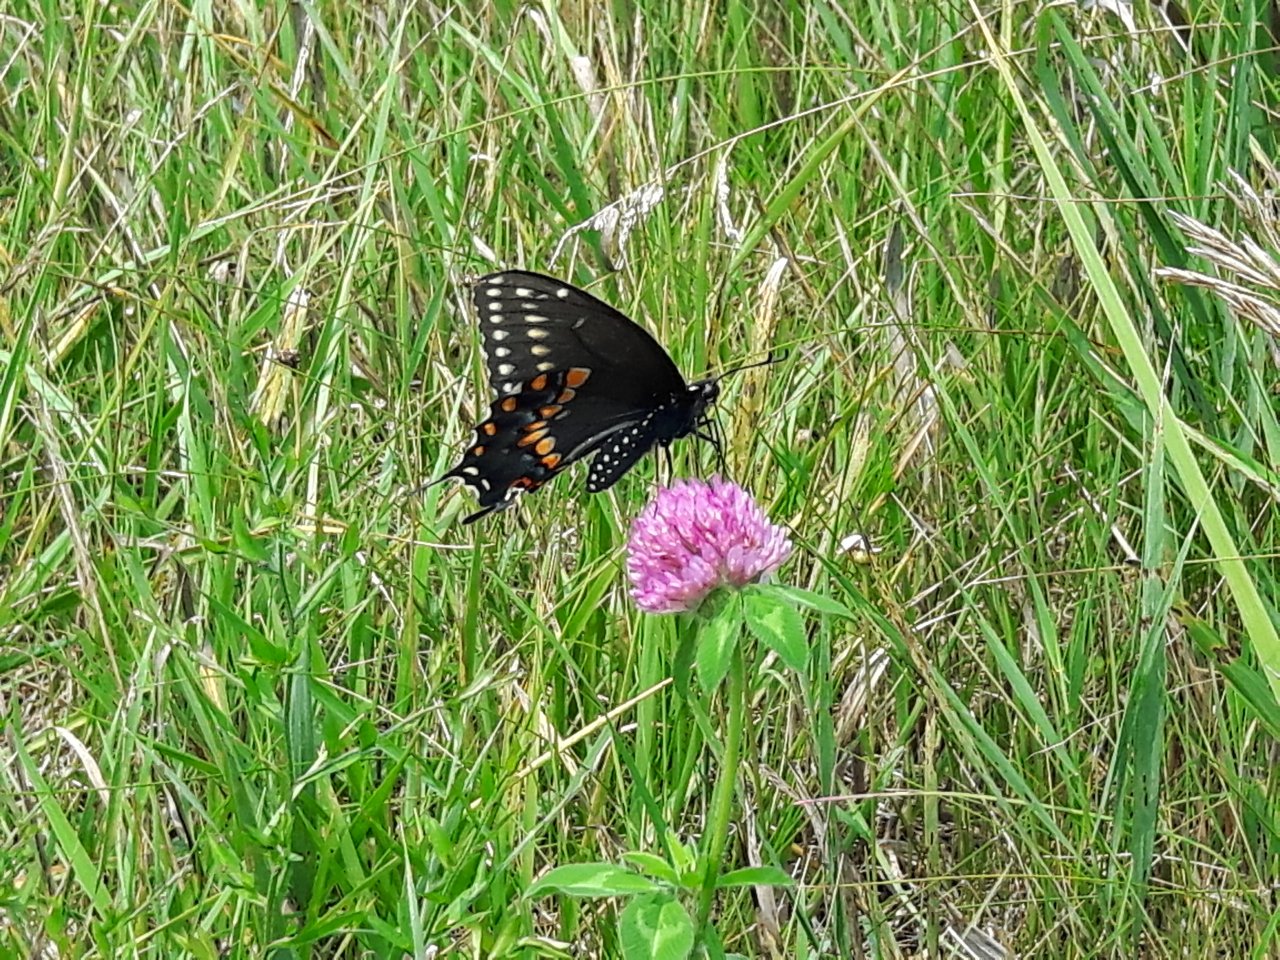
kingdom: Animalia
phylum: Arthropoda
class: Insecta
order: Lepidoptera
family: Papilionidae
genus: Papilio
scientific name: Papilio polyxenes
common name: Black Swallowtail
